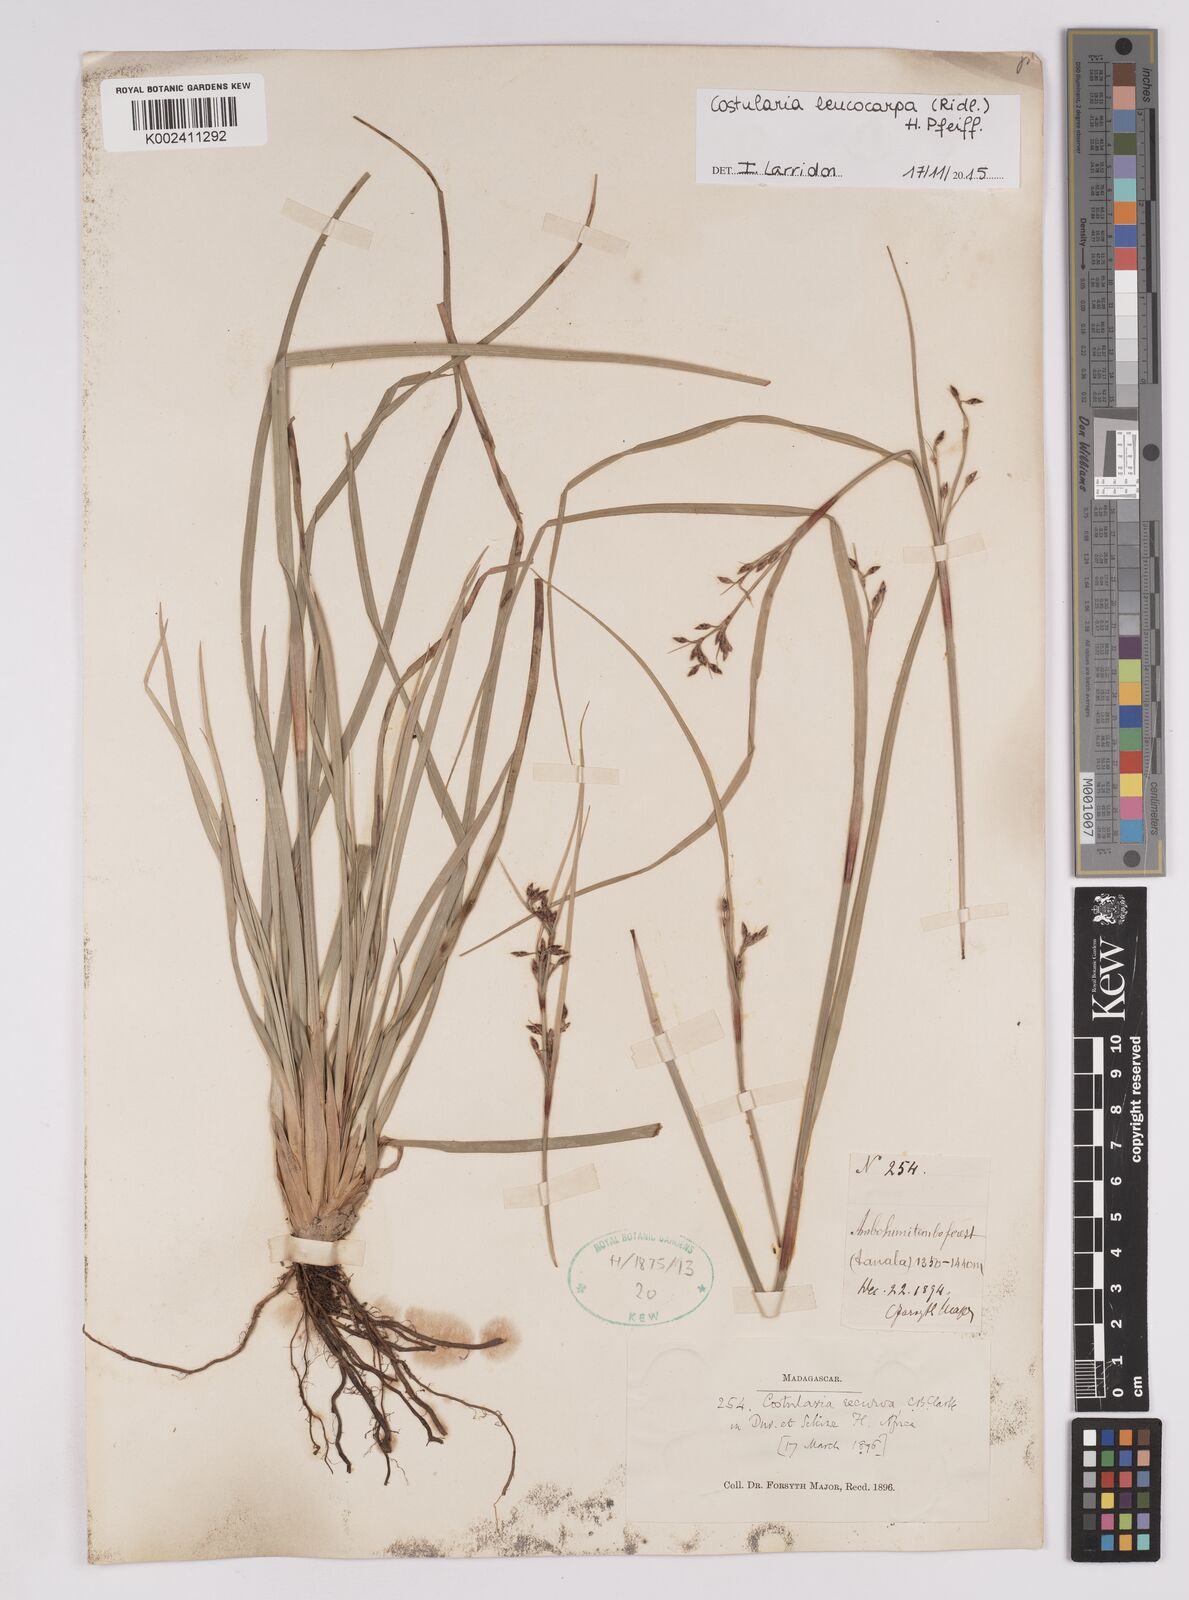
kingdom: Plantae
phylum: Tracheophyta
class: Liliopsida
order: Poales
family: Cyperaceae
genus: Costularia
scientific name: Costularia leucocarpa
